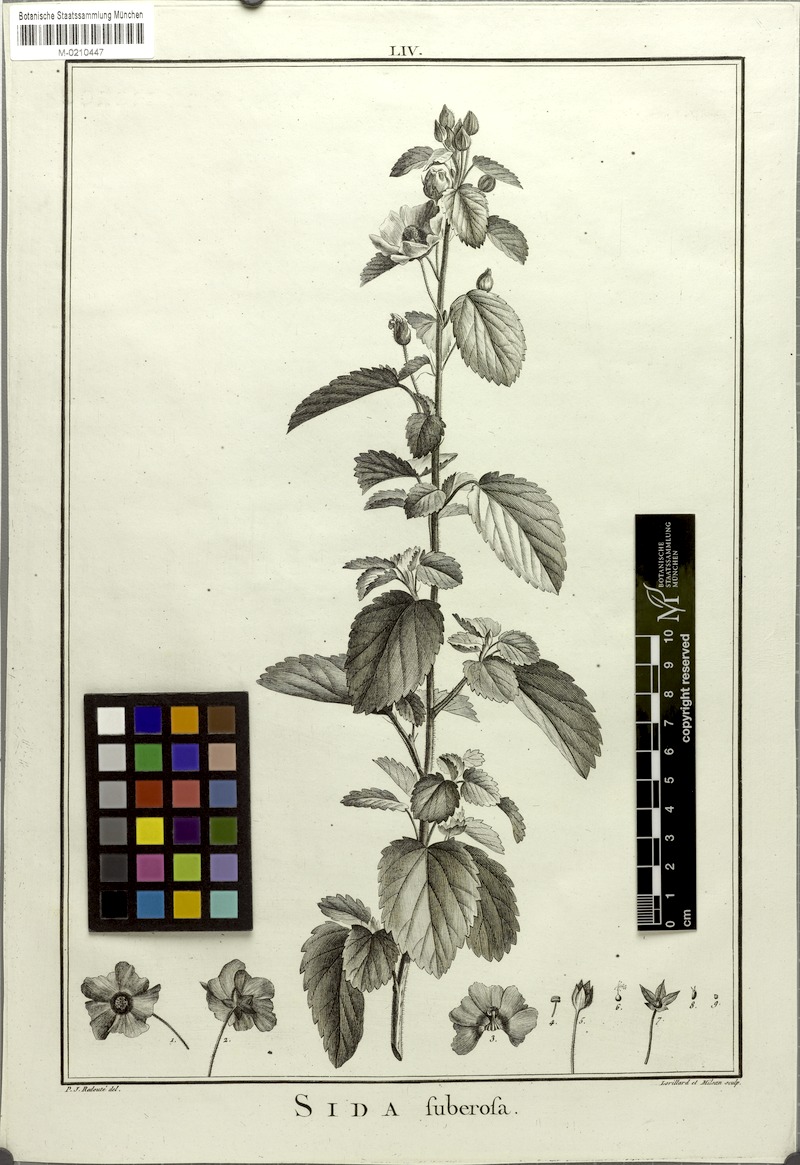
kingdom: Plantae
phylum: Tracheophyta
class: Magnoliopsida
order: Malvales
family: Malvaceae
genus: Abutilon
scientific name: Abutilon bivalve
